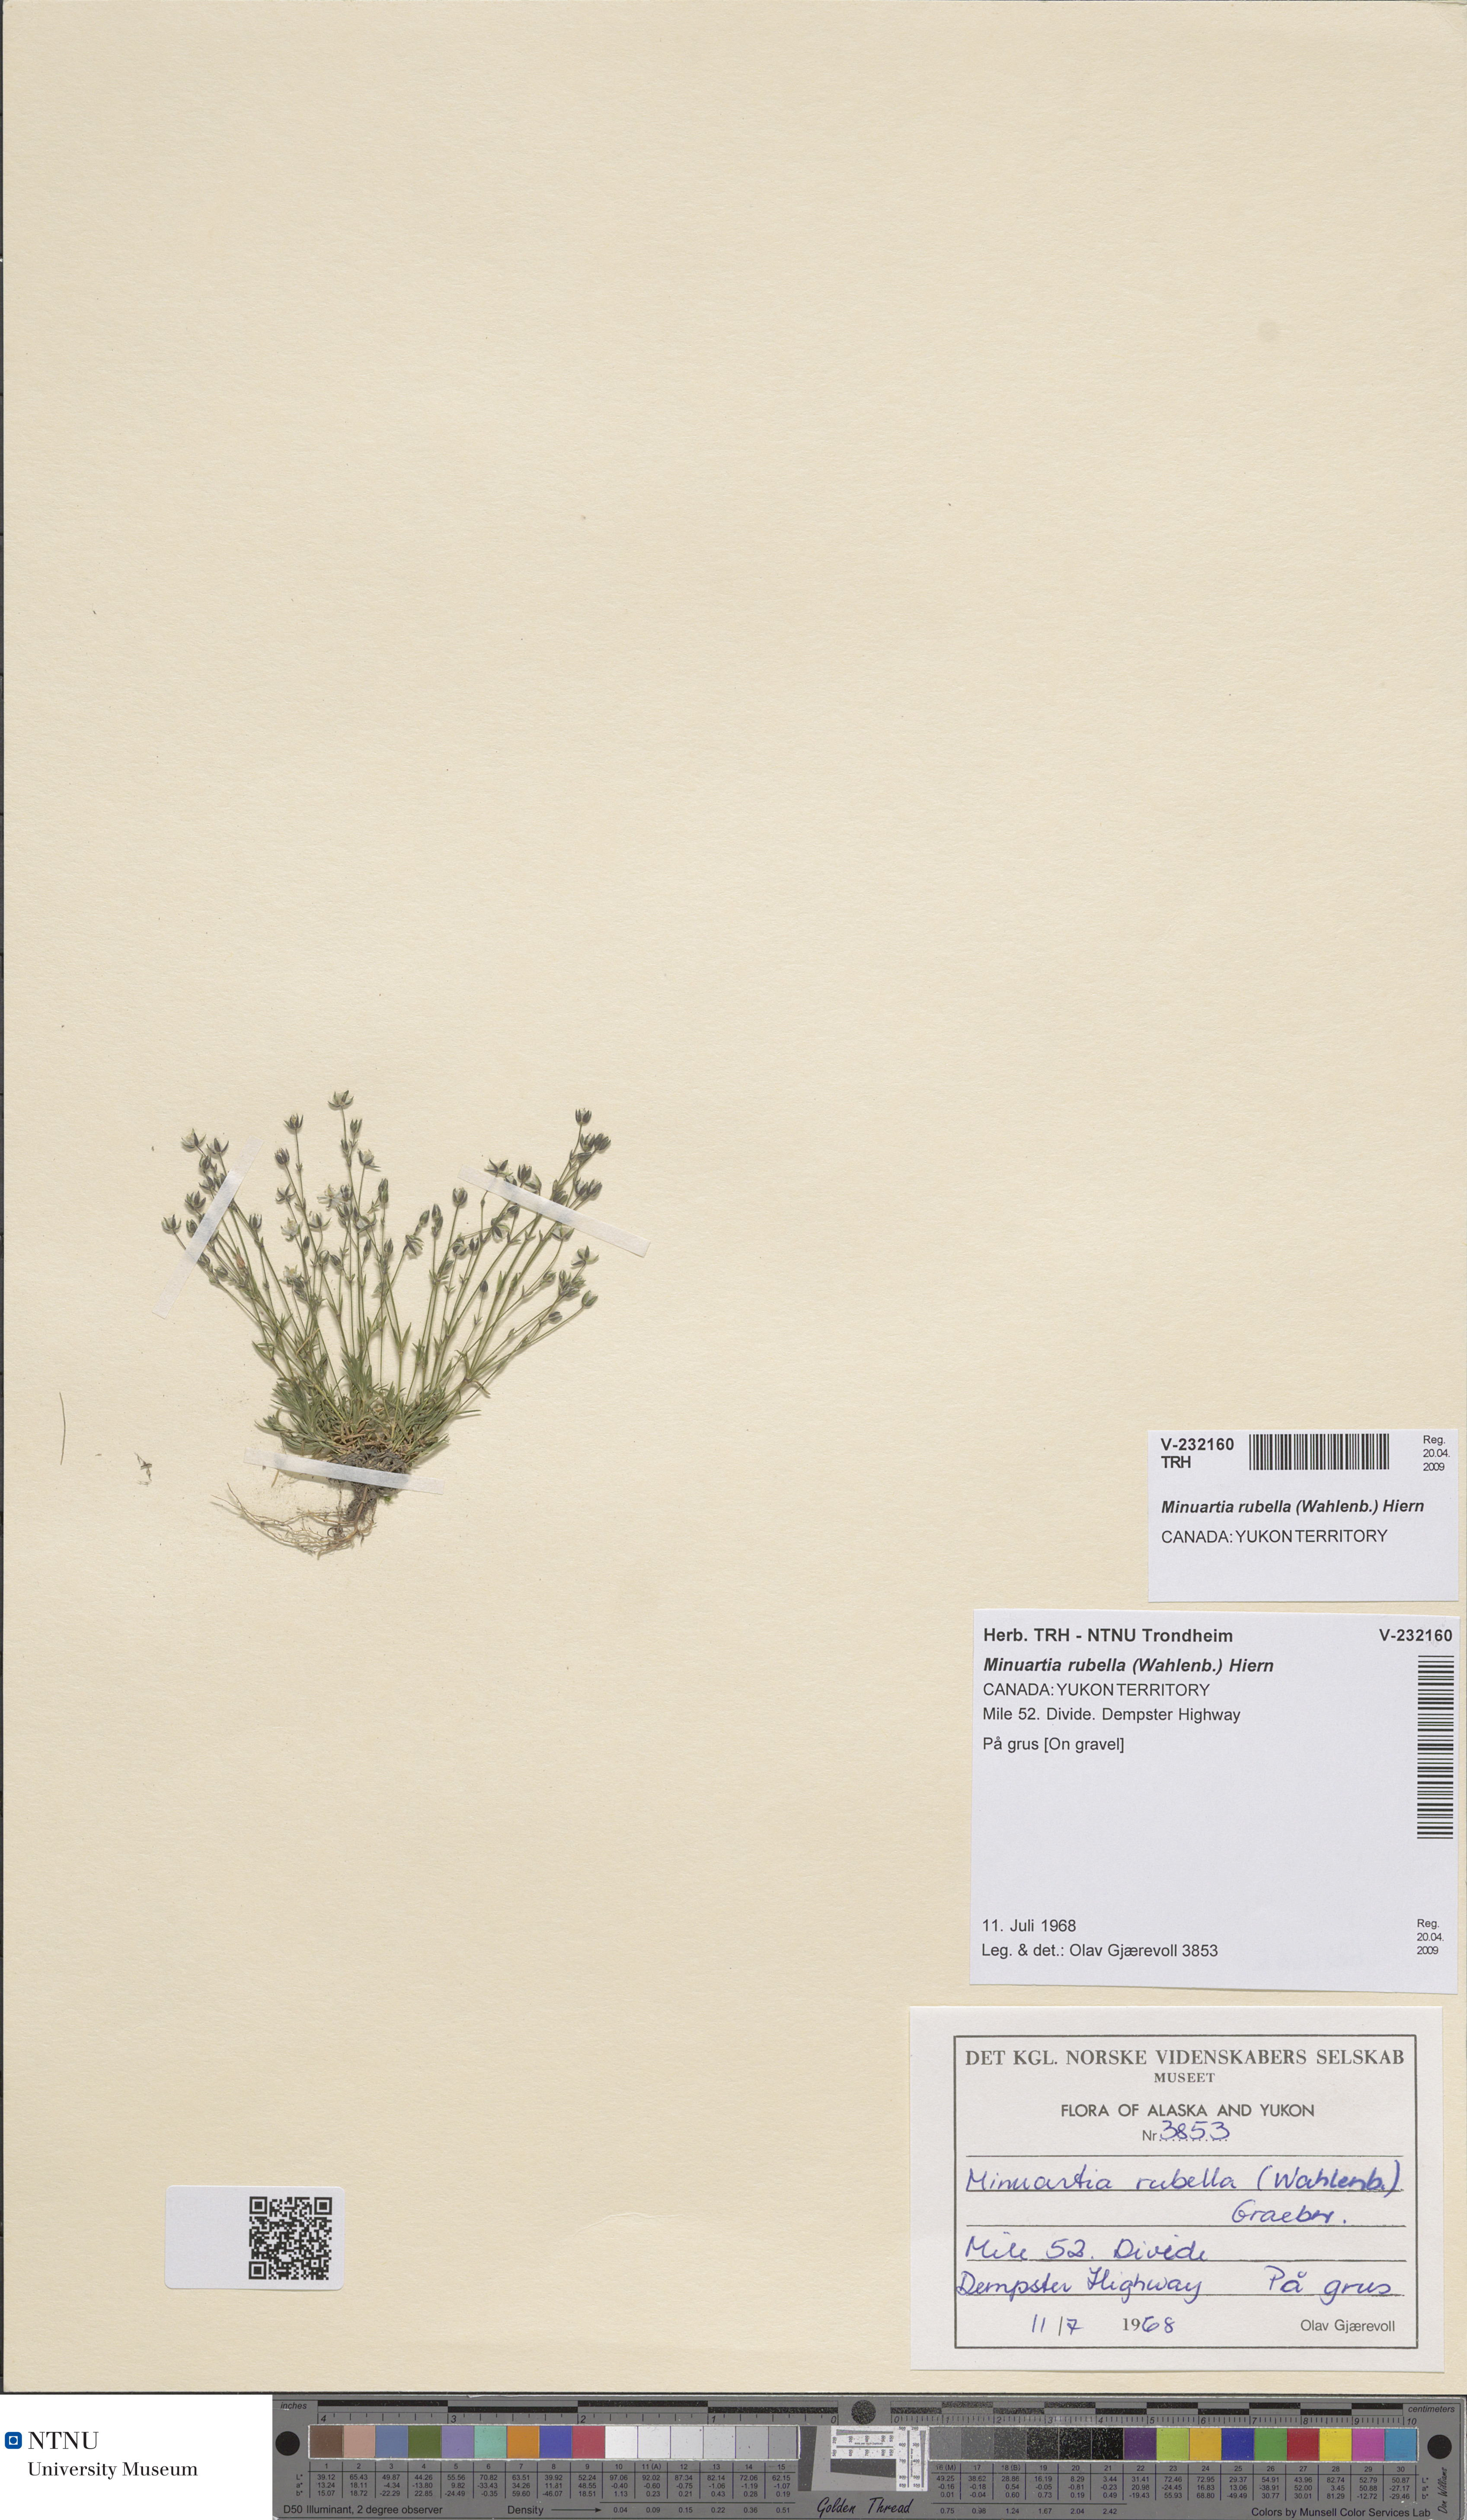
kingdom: Plantae
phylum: Tracheophyta
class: Magnoliopsida
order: Caryophyllales
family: Caryophyllaceae
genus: Sabulina
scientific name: Sabulina rubella
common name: Beautiful sandwort
